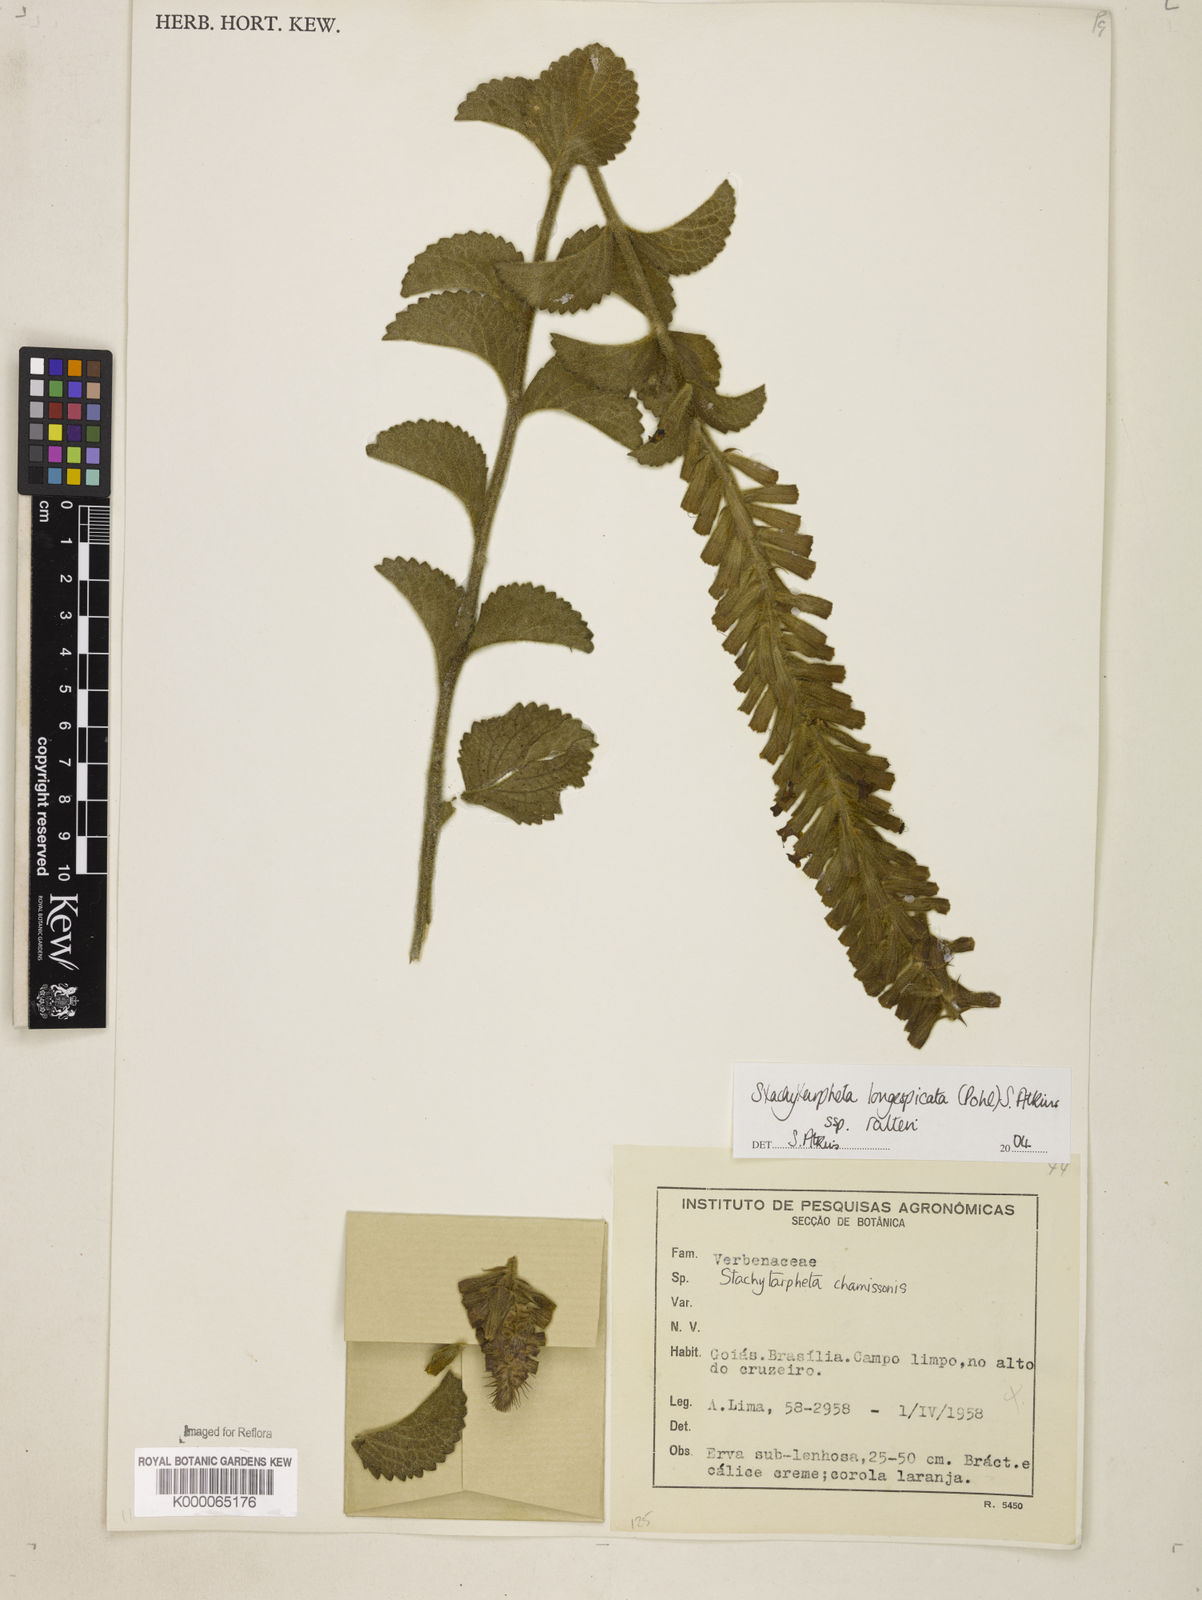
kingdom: Plantae
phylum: Tracheophyta
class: Magnoliopsida
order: Lamiales
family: Verbenaceae
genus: Stachytarpheta
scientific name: Stachytarpheta longispicata
